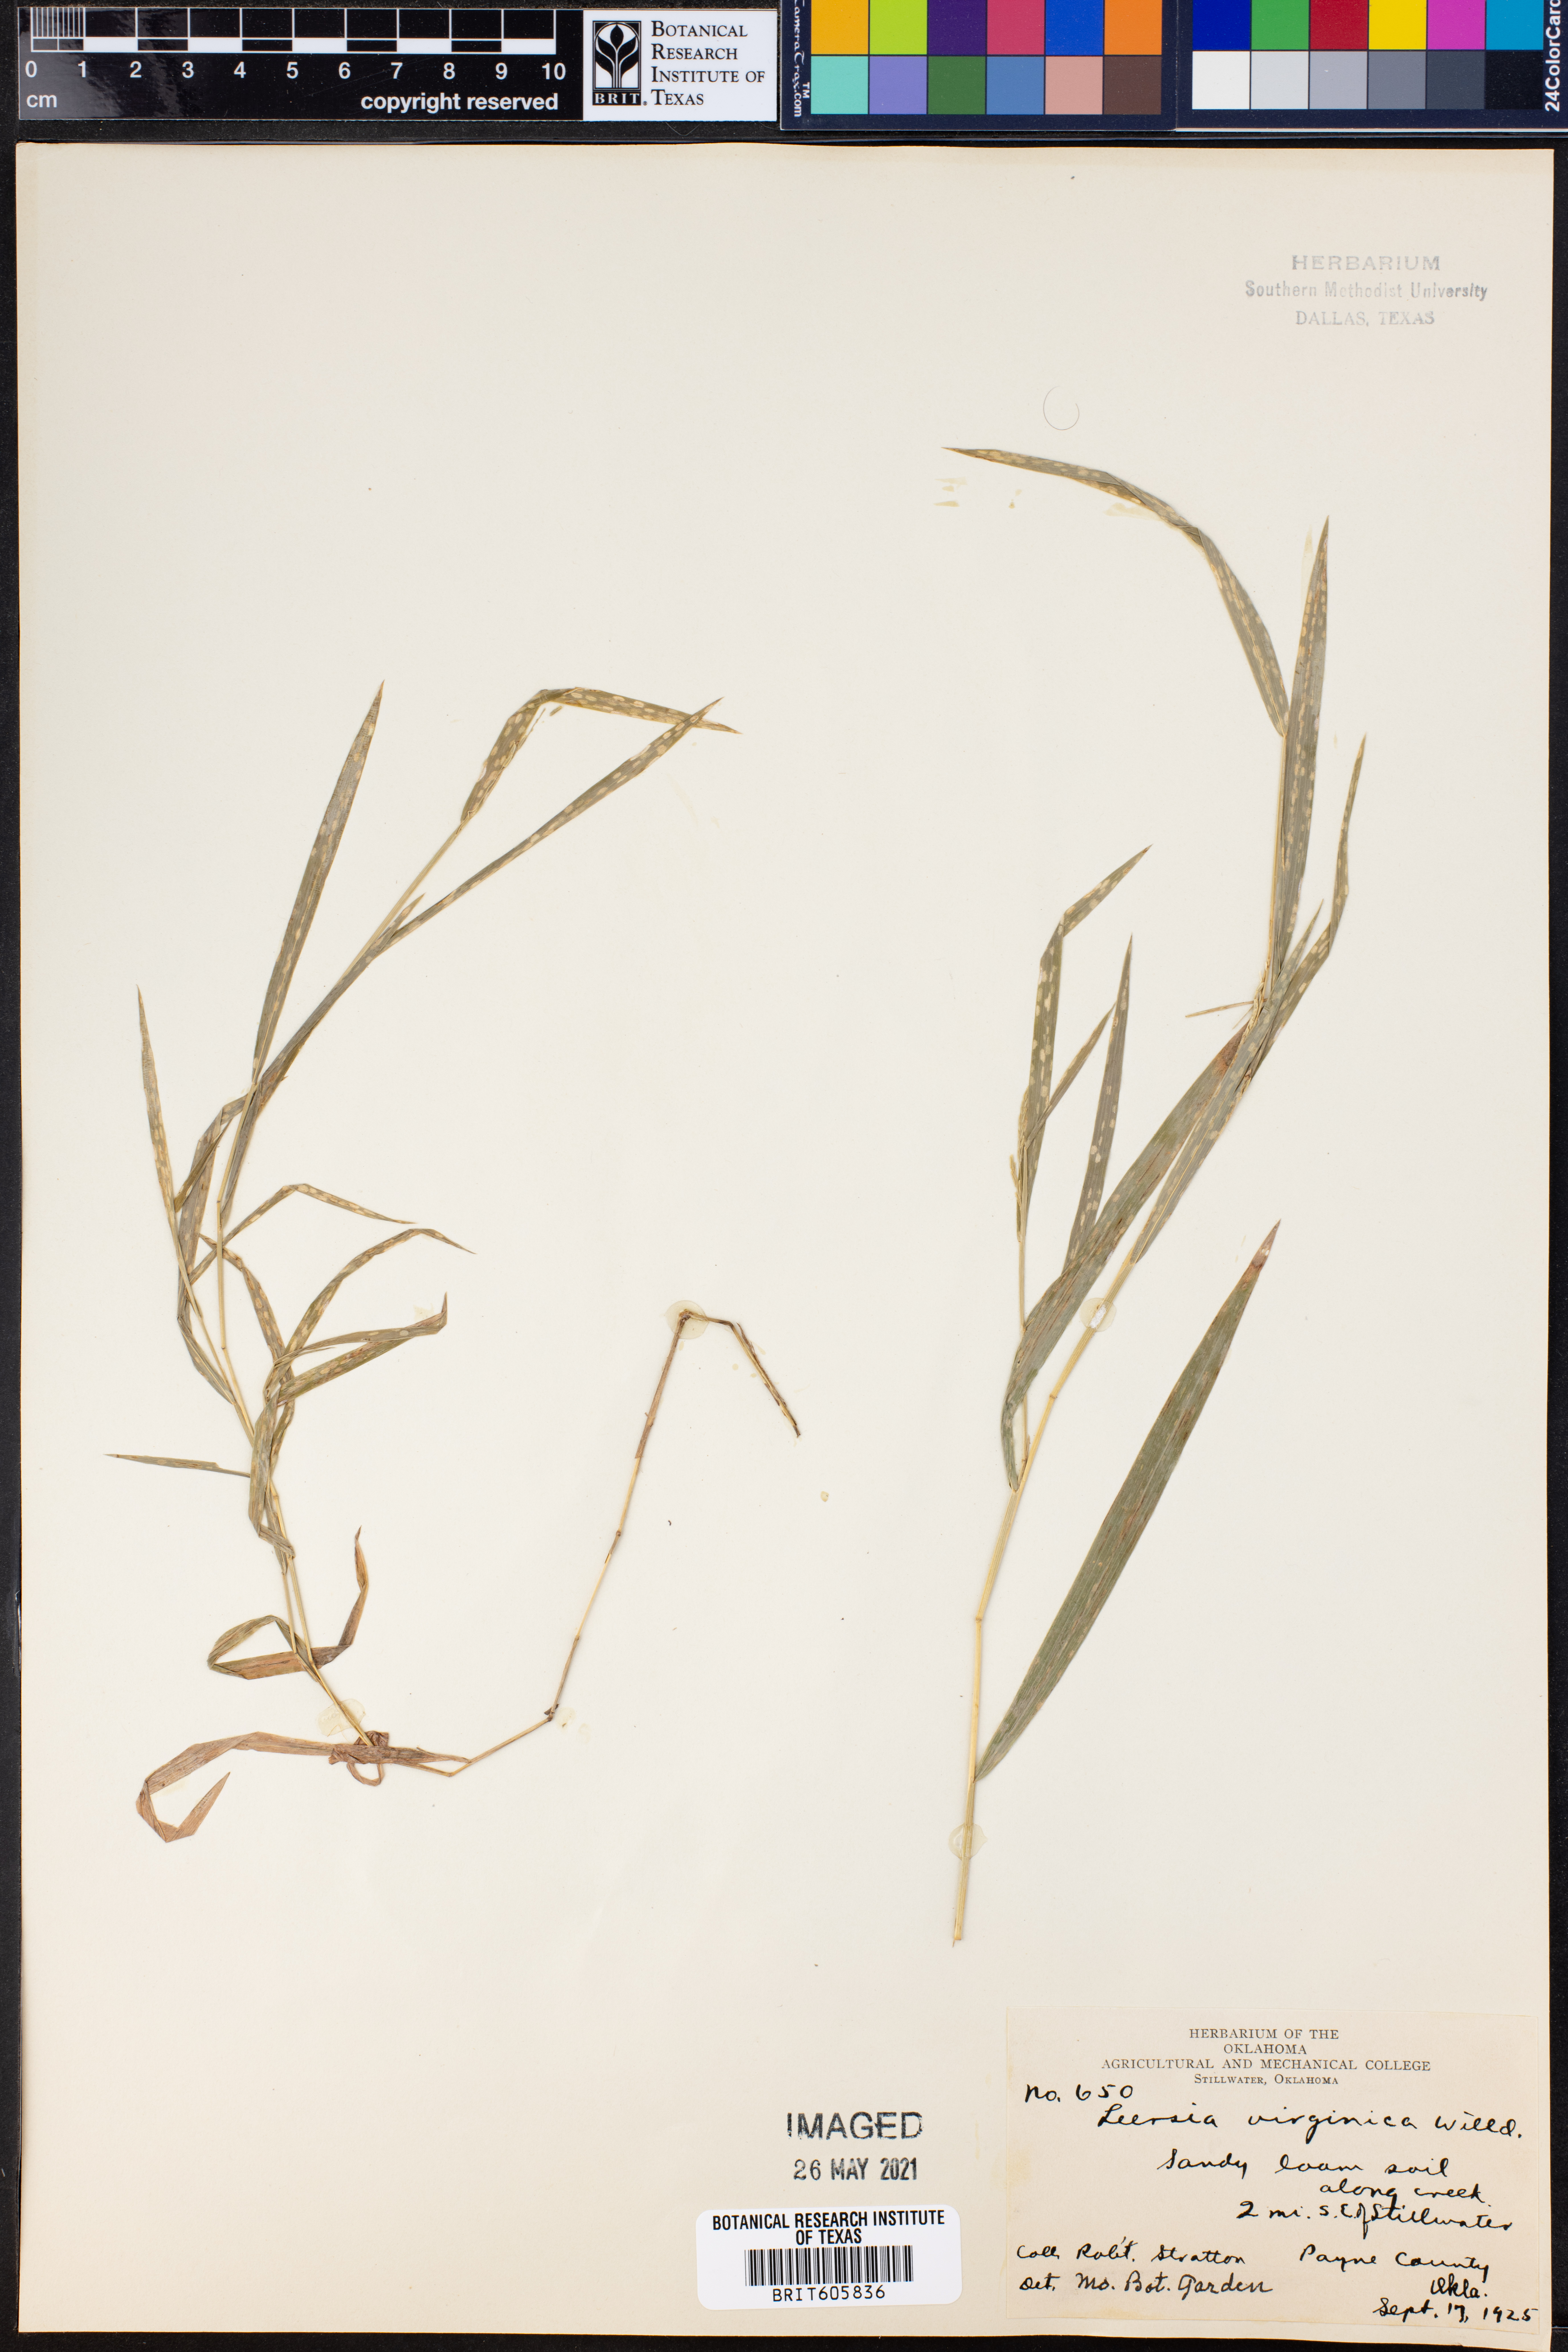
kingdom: Plantae
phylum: Tracheophyta
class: Liliopsida
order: Poales
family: Poaceae
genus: Leersia
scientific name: Leersia virginica
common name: White cutgrass
